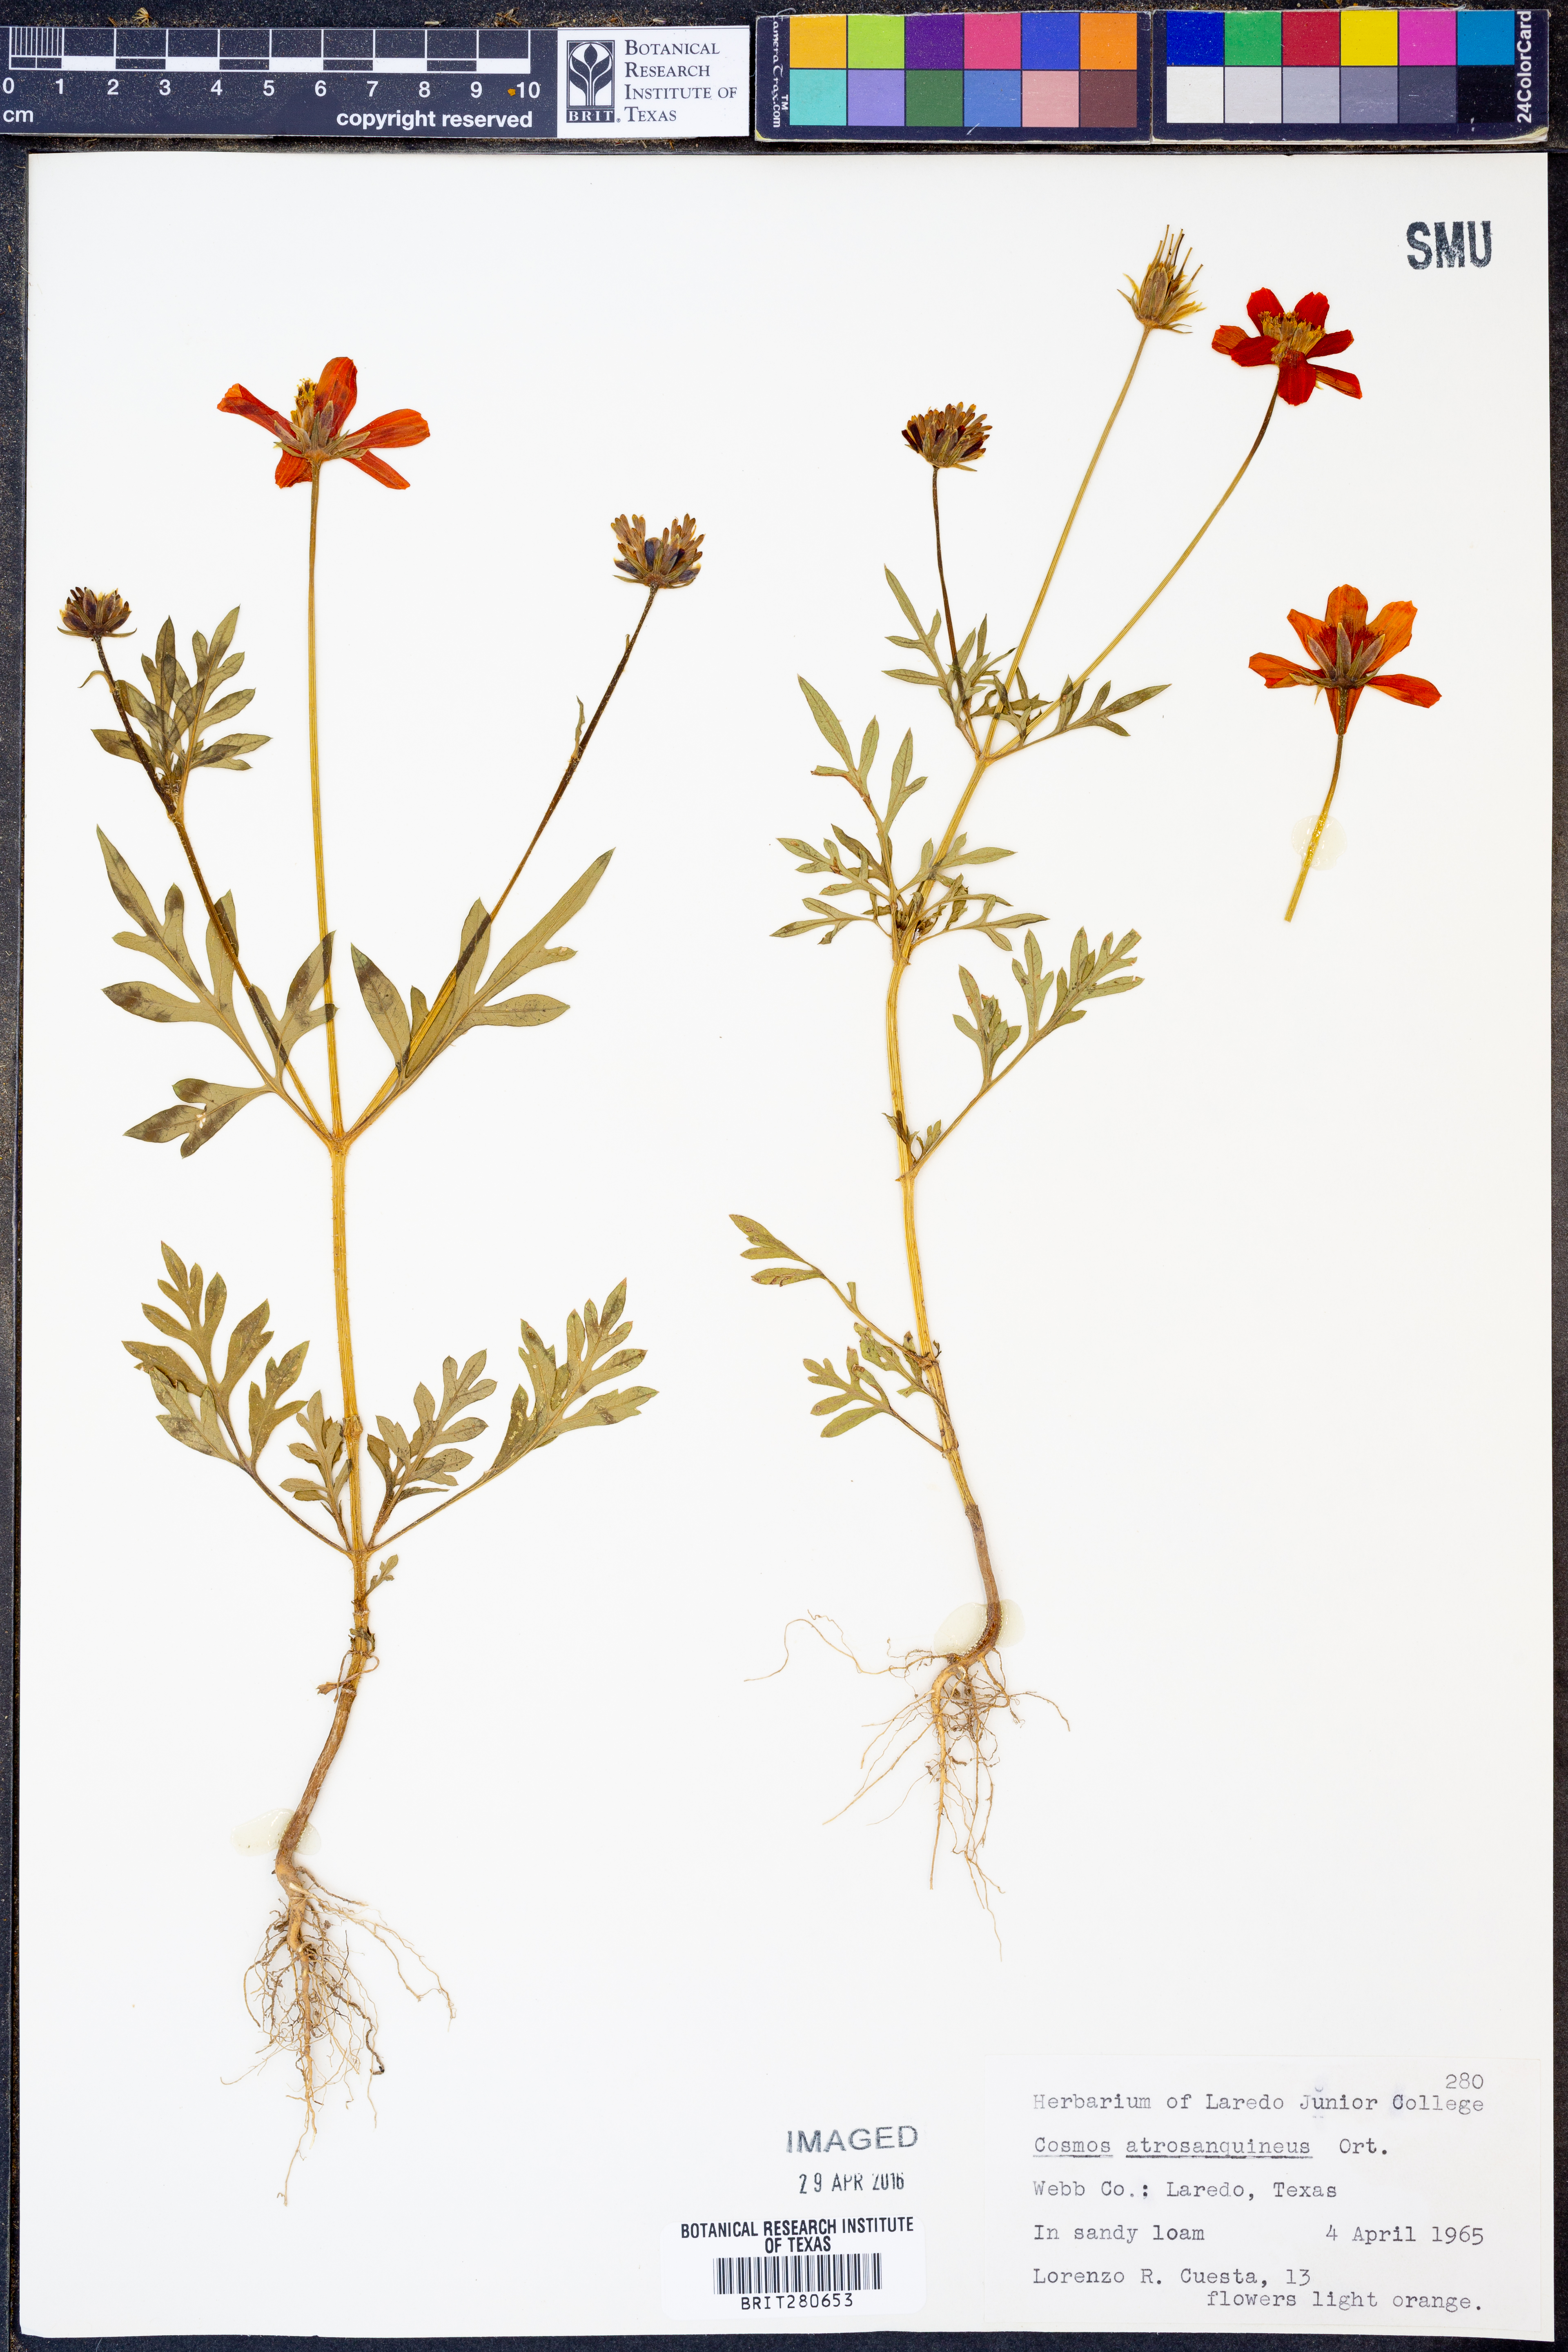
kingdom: Plantae
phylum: Tracheophyta
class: Magnoliopsida
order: Asterales
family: Asteraceae
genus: Cosmos
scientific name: Cosmos atrosanguineus
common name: Chocolate cosmos
